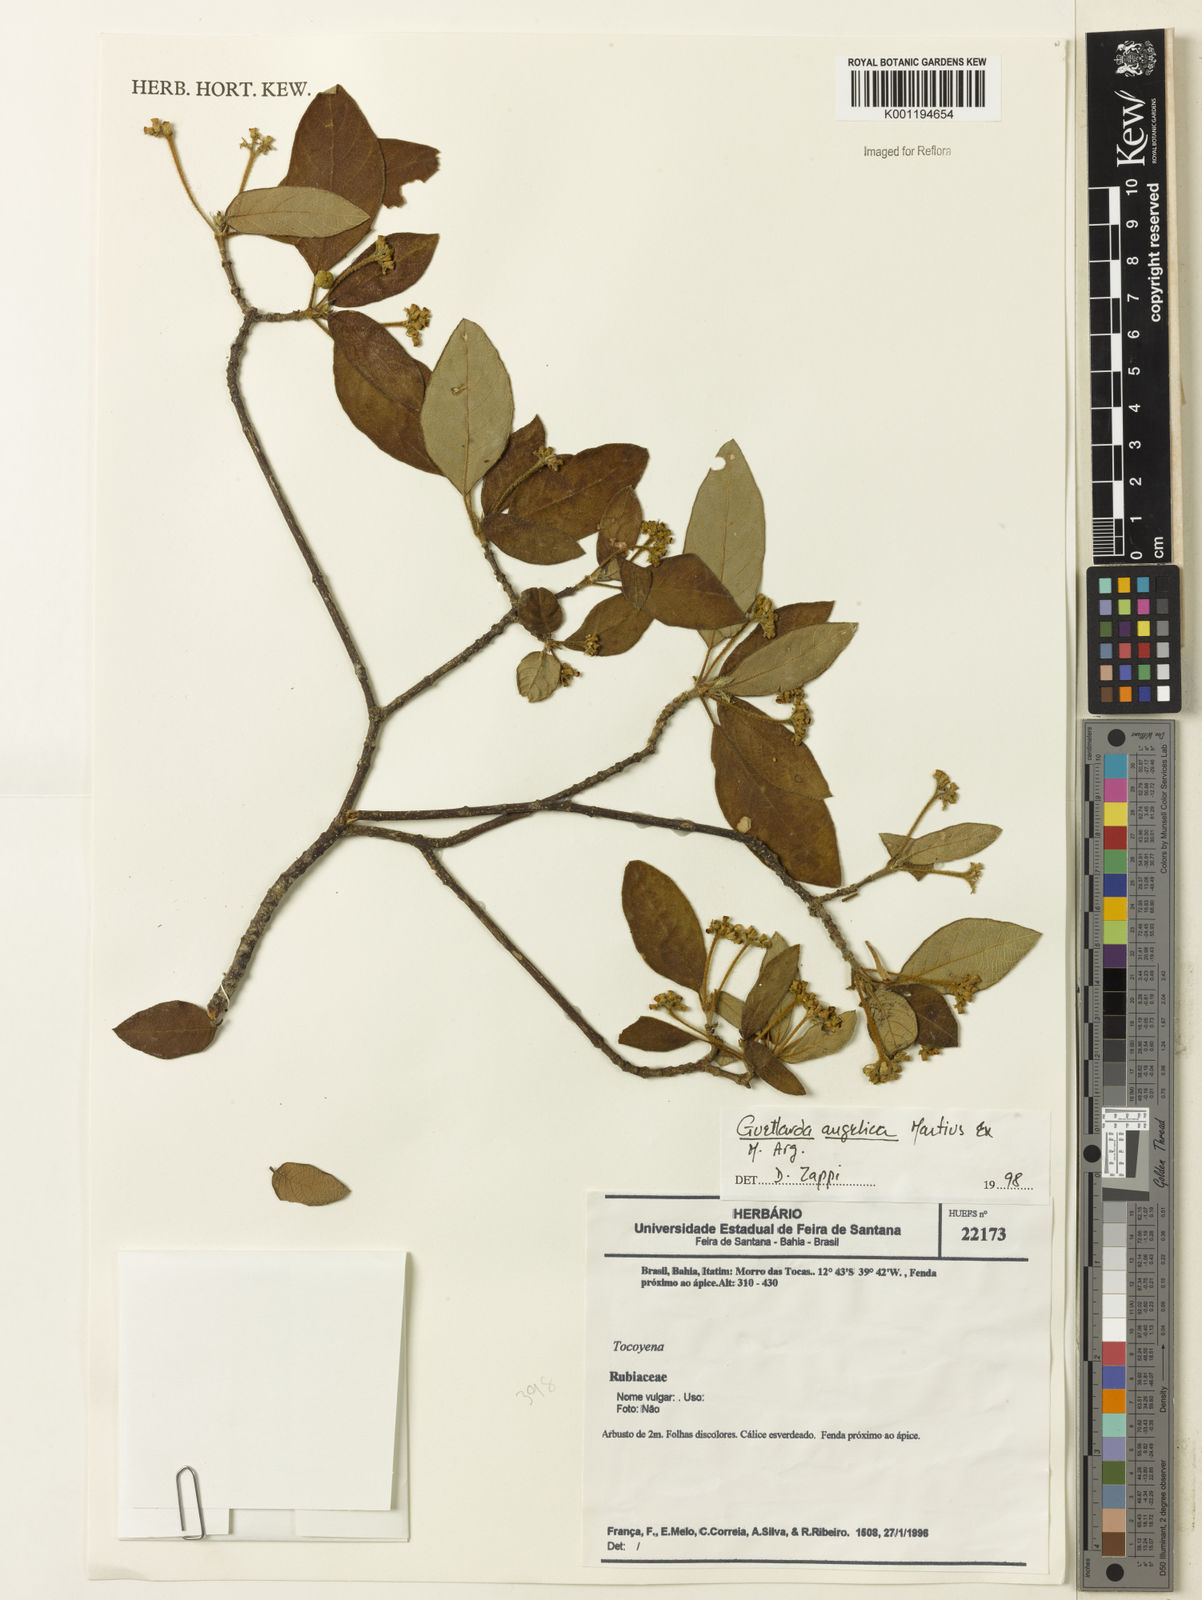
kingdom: Plantae
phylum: Tracheophyta
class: Magnoliopsida
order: Gentianales
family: Rubiaceae
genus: Guettarda
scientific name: Guettarda
